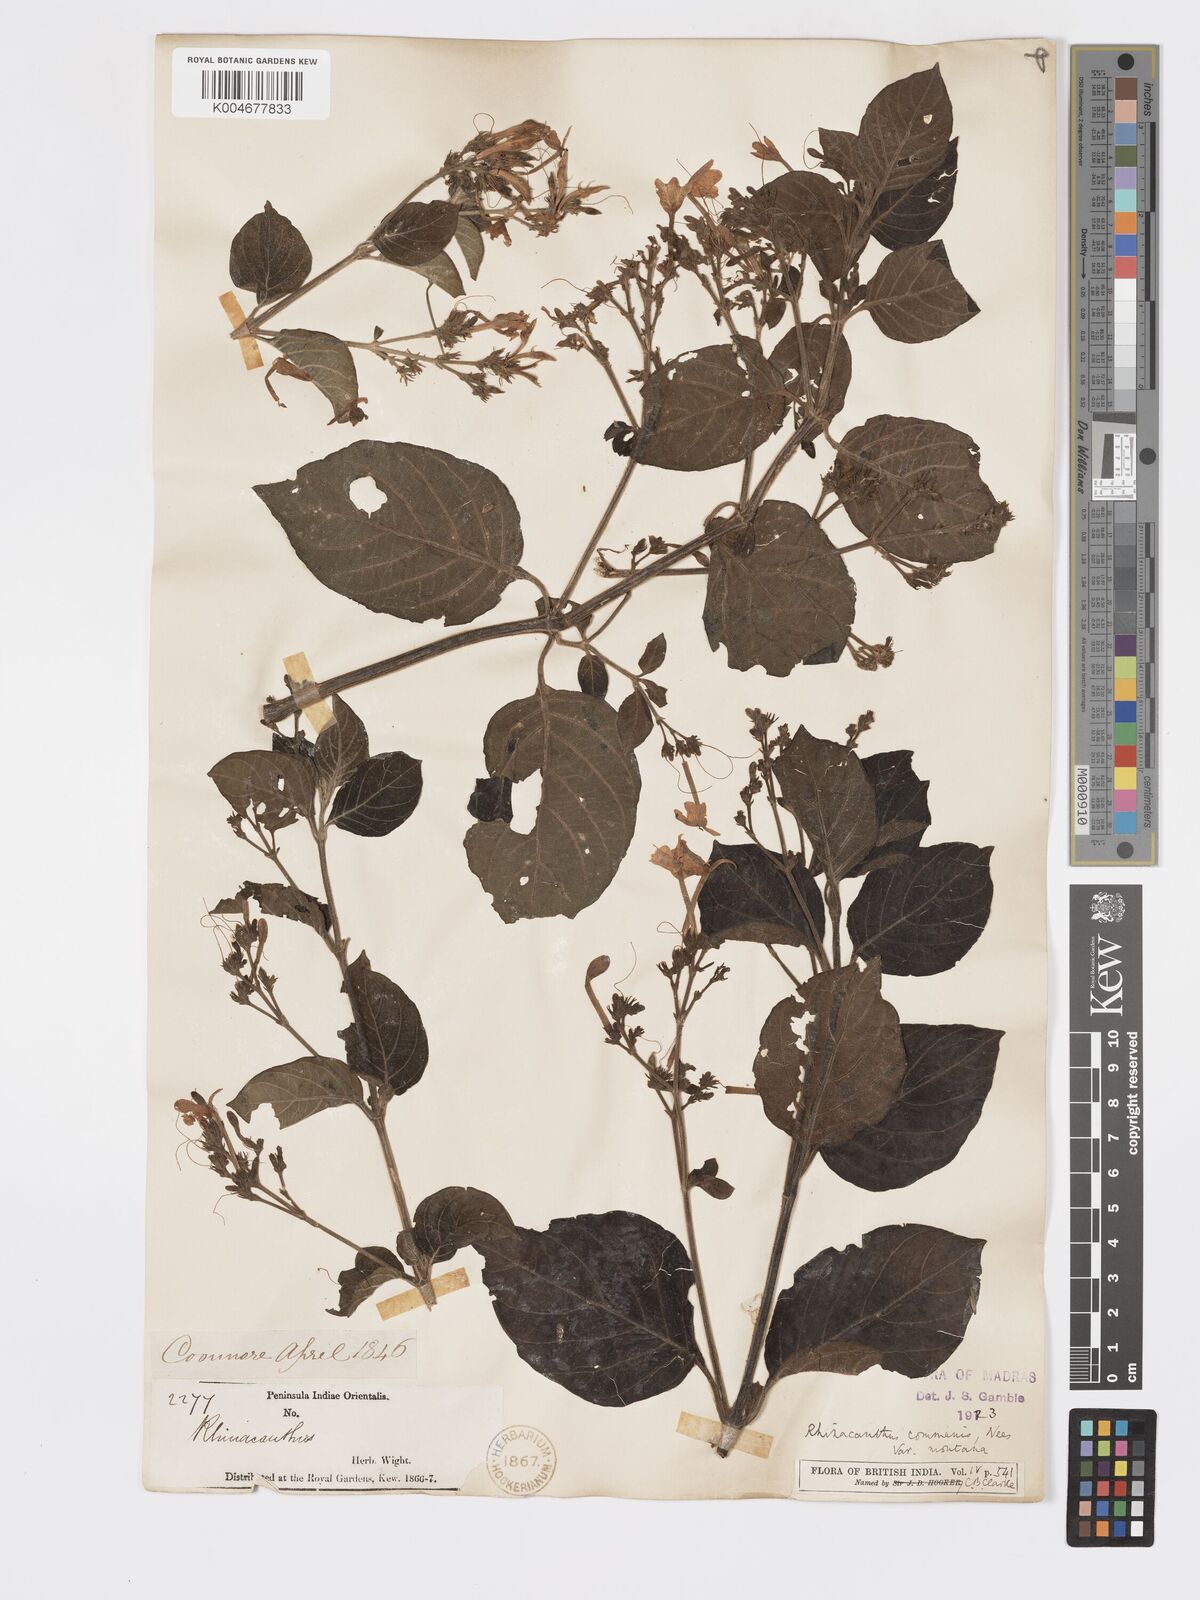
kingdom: Plantae
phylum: Tracheophyta
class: Magnoliopsida
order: Lamiales
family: Acanthaceae
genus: Rhinacanthus
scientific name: Rhinacanthus nasutus
